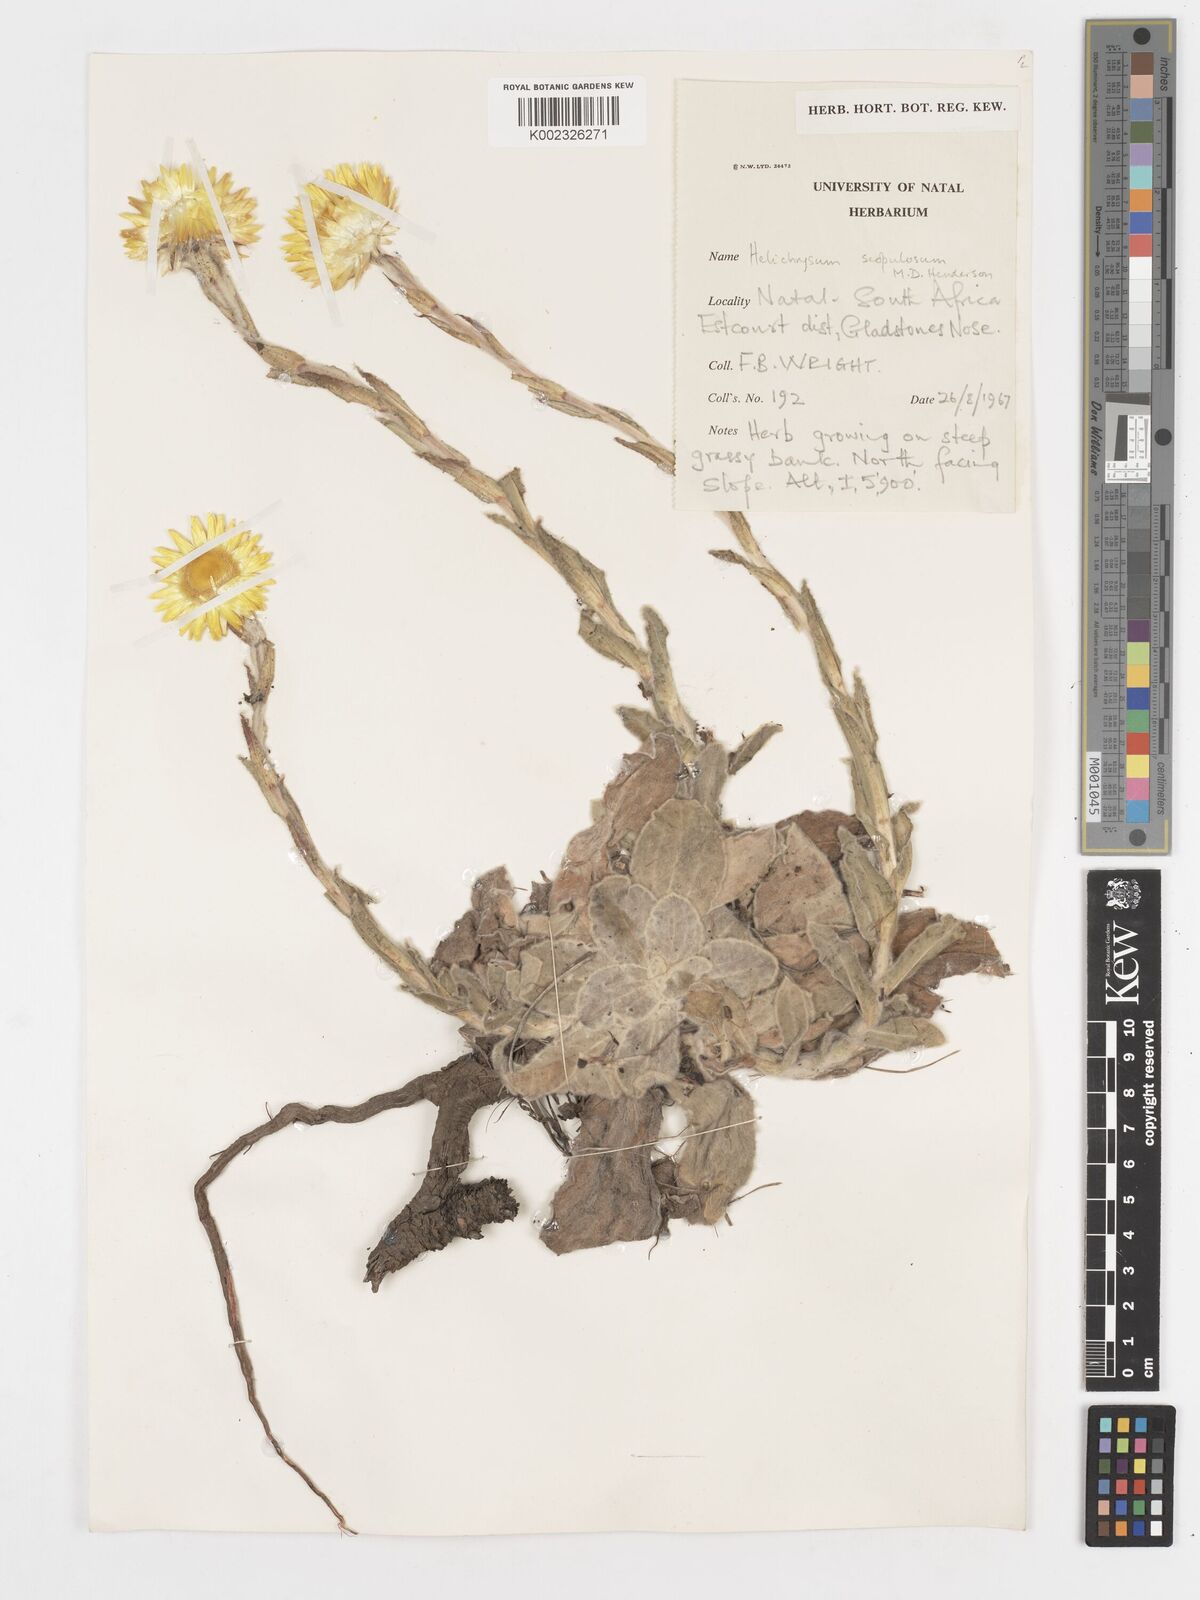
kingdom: Plantae
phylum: Tracheophyta
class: Magnoliopsida
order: Asterales
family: Asteraceae
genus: Helichrysum
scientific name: Helichrysum aureum
